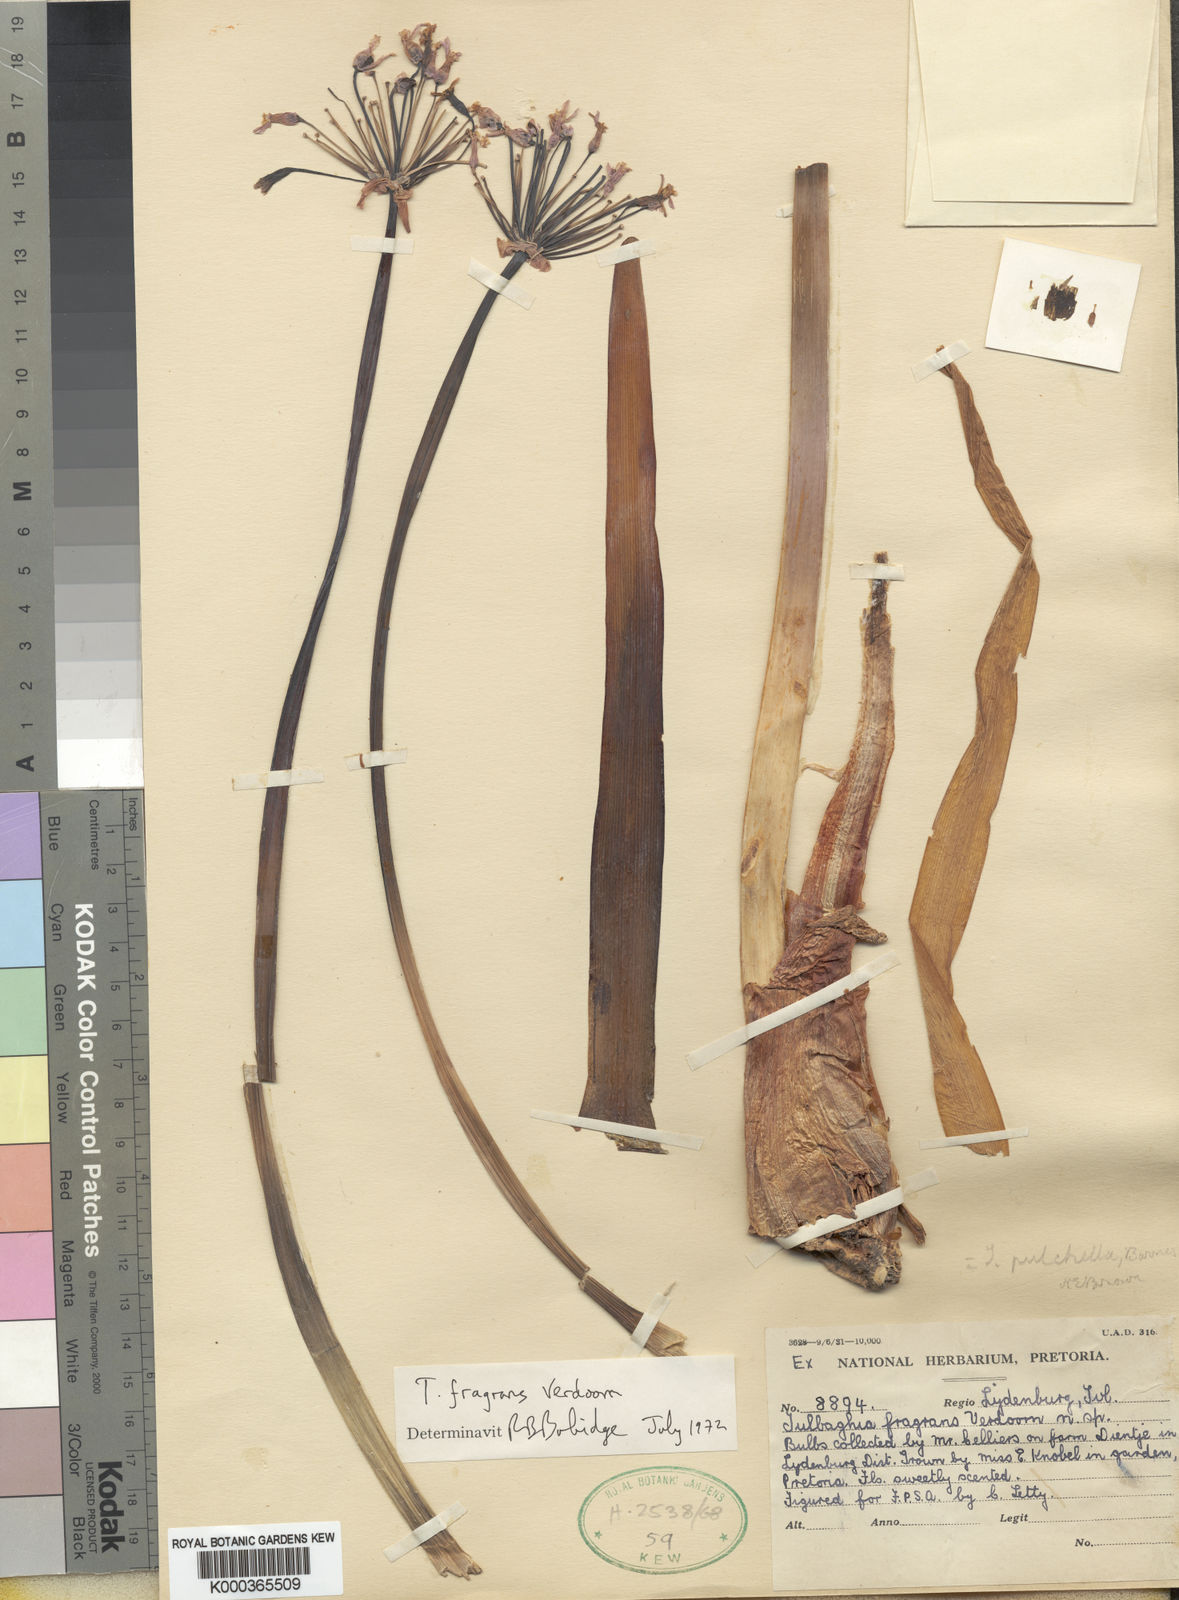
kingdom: Plantae
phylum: Tracheophyta
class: Liliopsida
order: Asparagales
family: Amaryllidaceae
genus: Tulbaghia
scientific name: Tulbaghia simmleri
